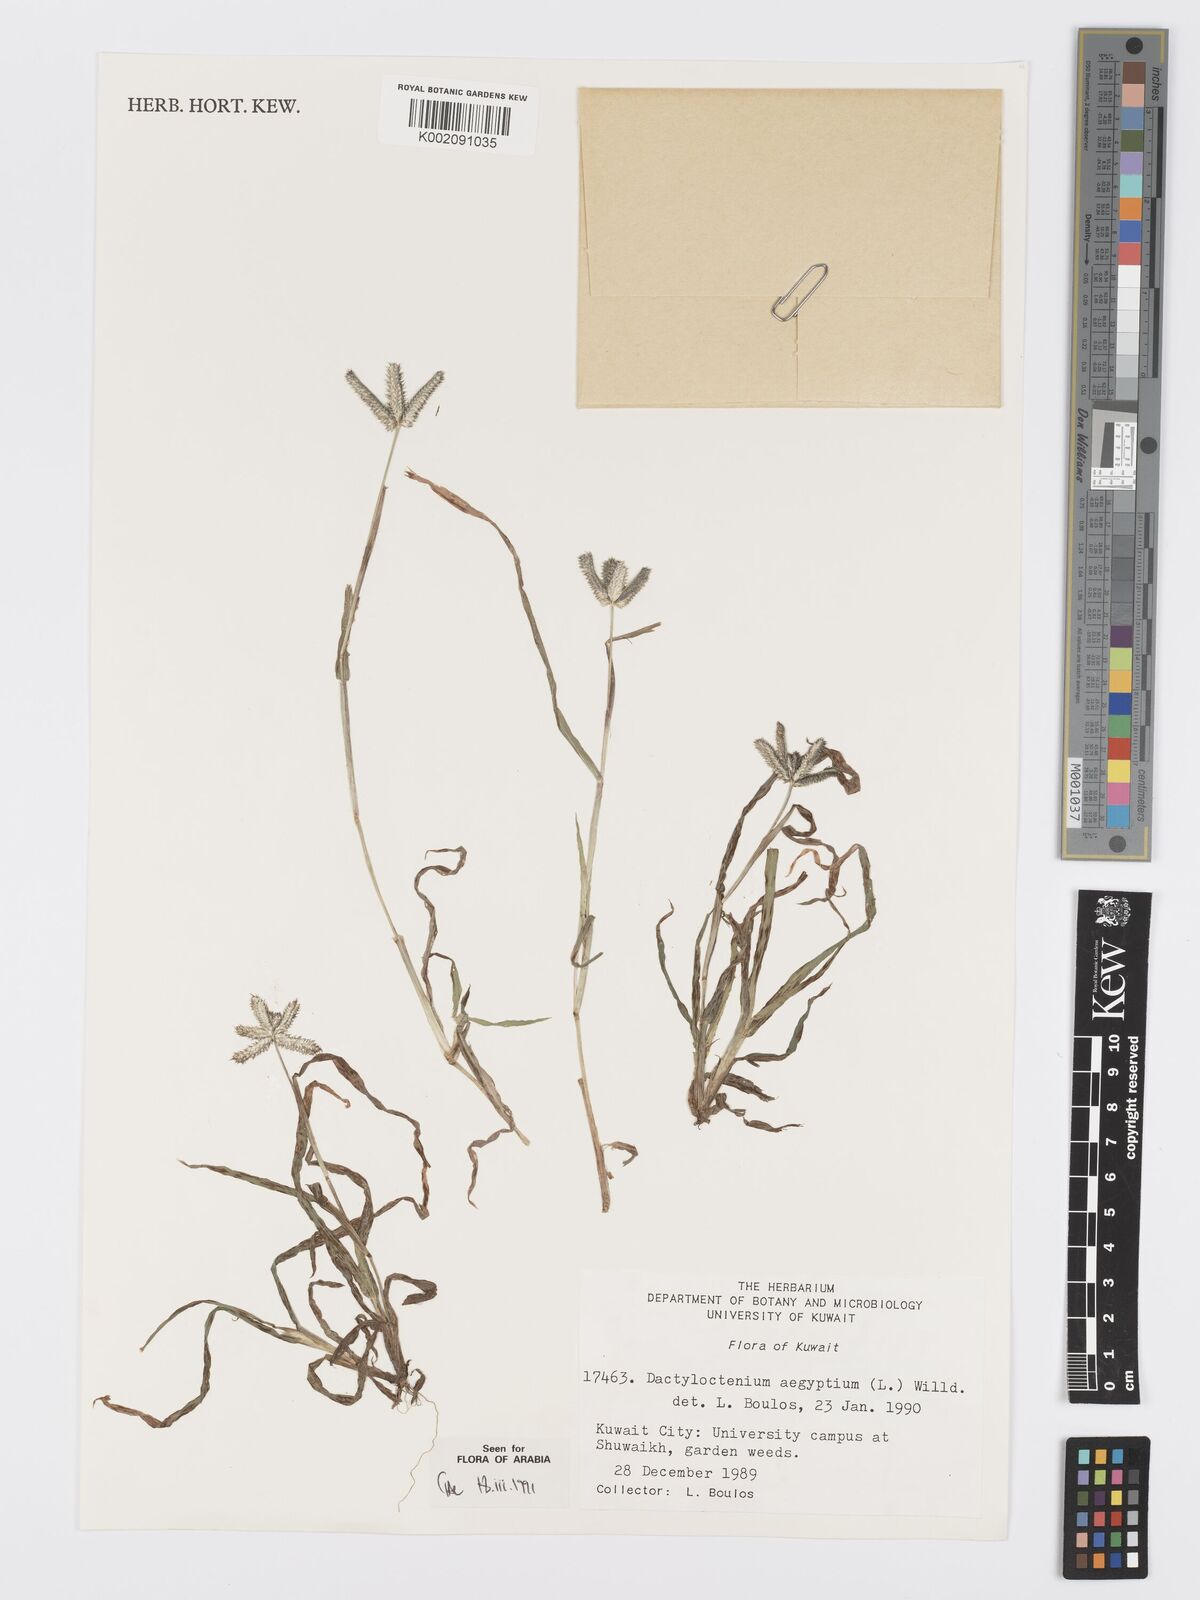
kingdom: Plantae
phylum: Tracheophyta
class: Liliopsida
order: Poales
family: Poaceae
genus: Dactyloctenium
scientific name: Dactyloctenium aegyptium
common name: Egyptian grass
